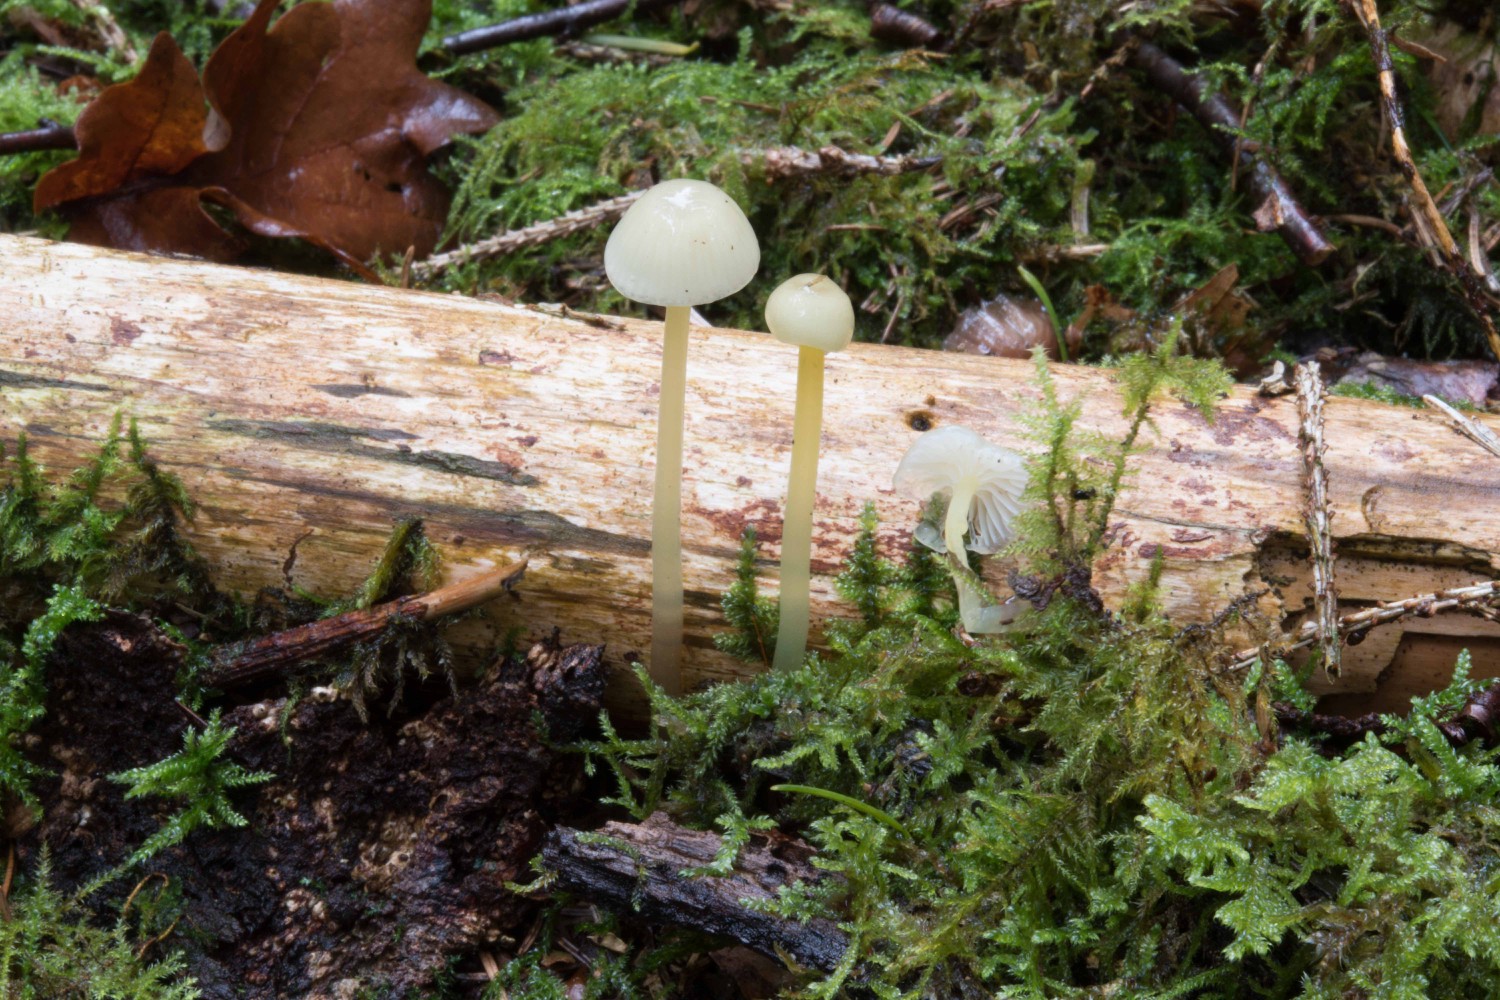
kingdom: Fungi
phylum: Basidiomycota
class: Agaricomycetes
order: Agaricales
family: Mycenaceae
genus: Mycena
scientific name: Mycena epipterygia
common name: gulstokket huesvamp
